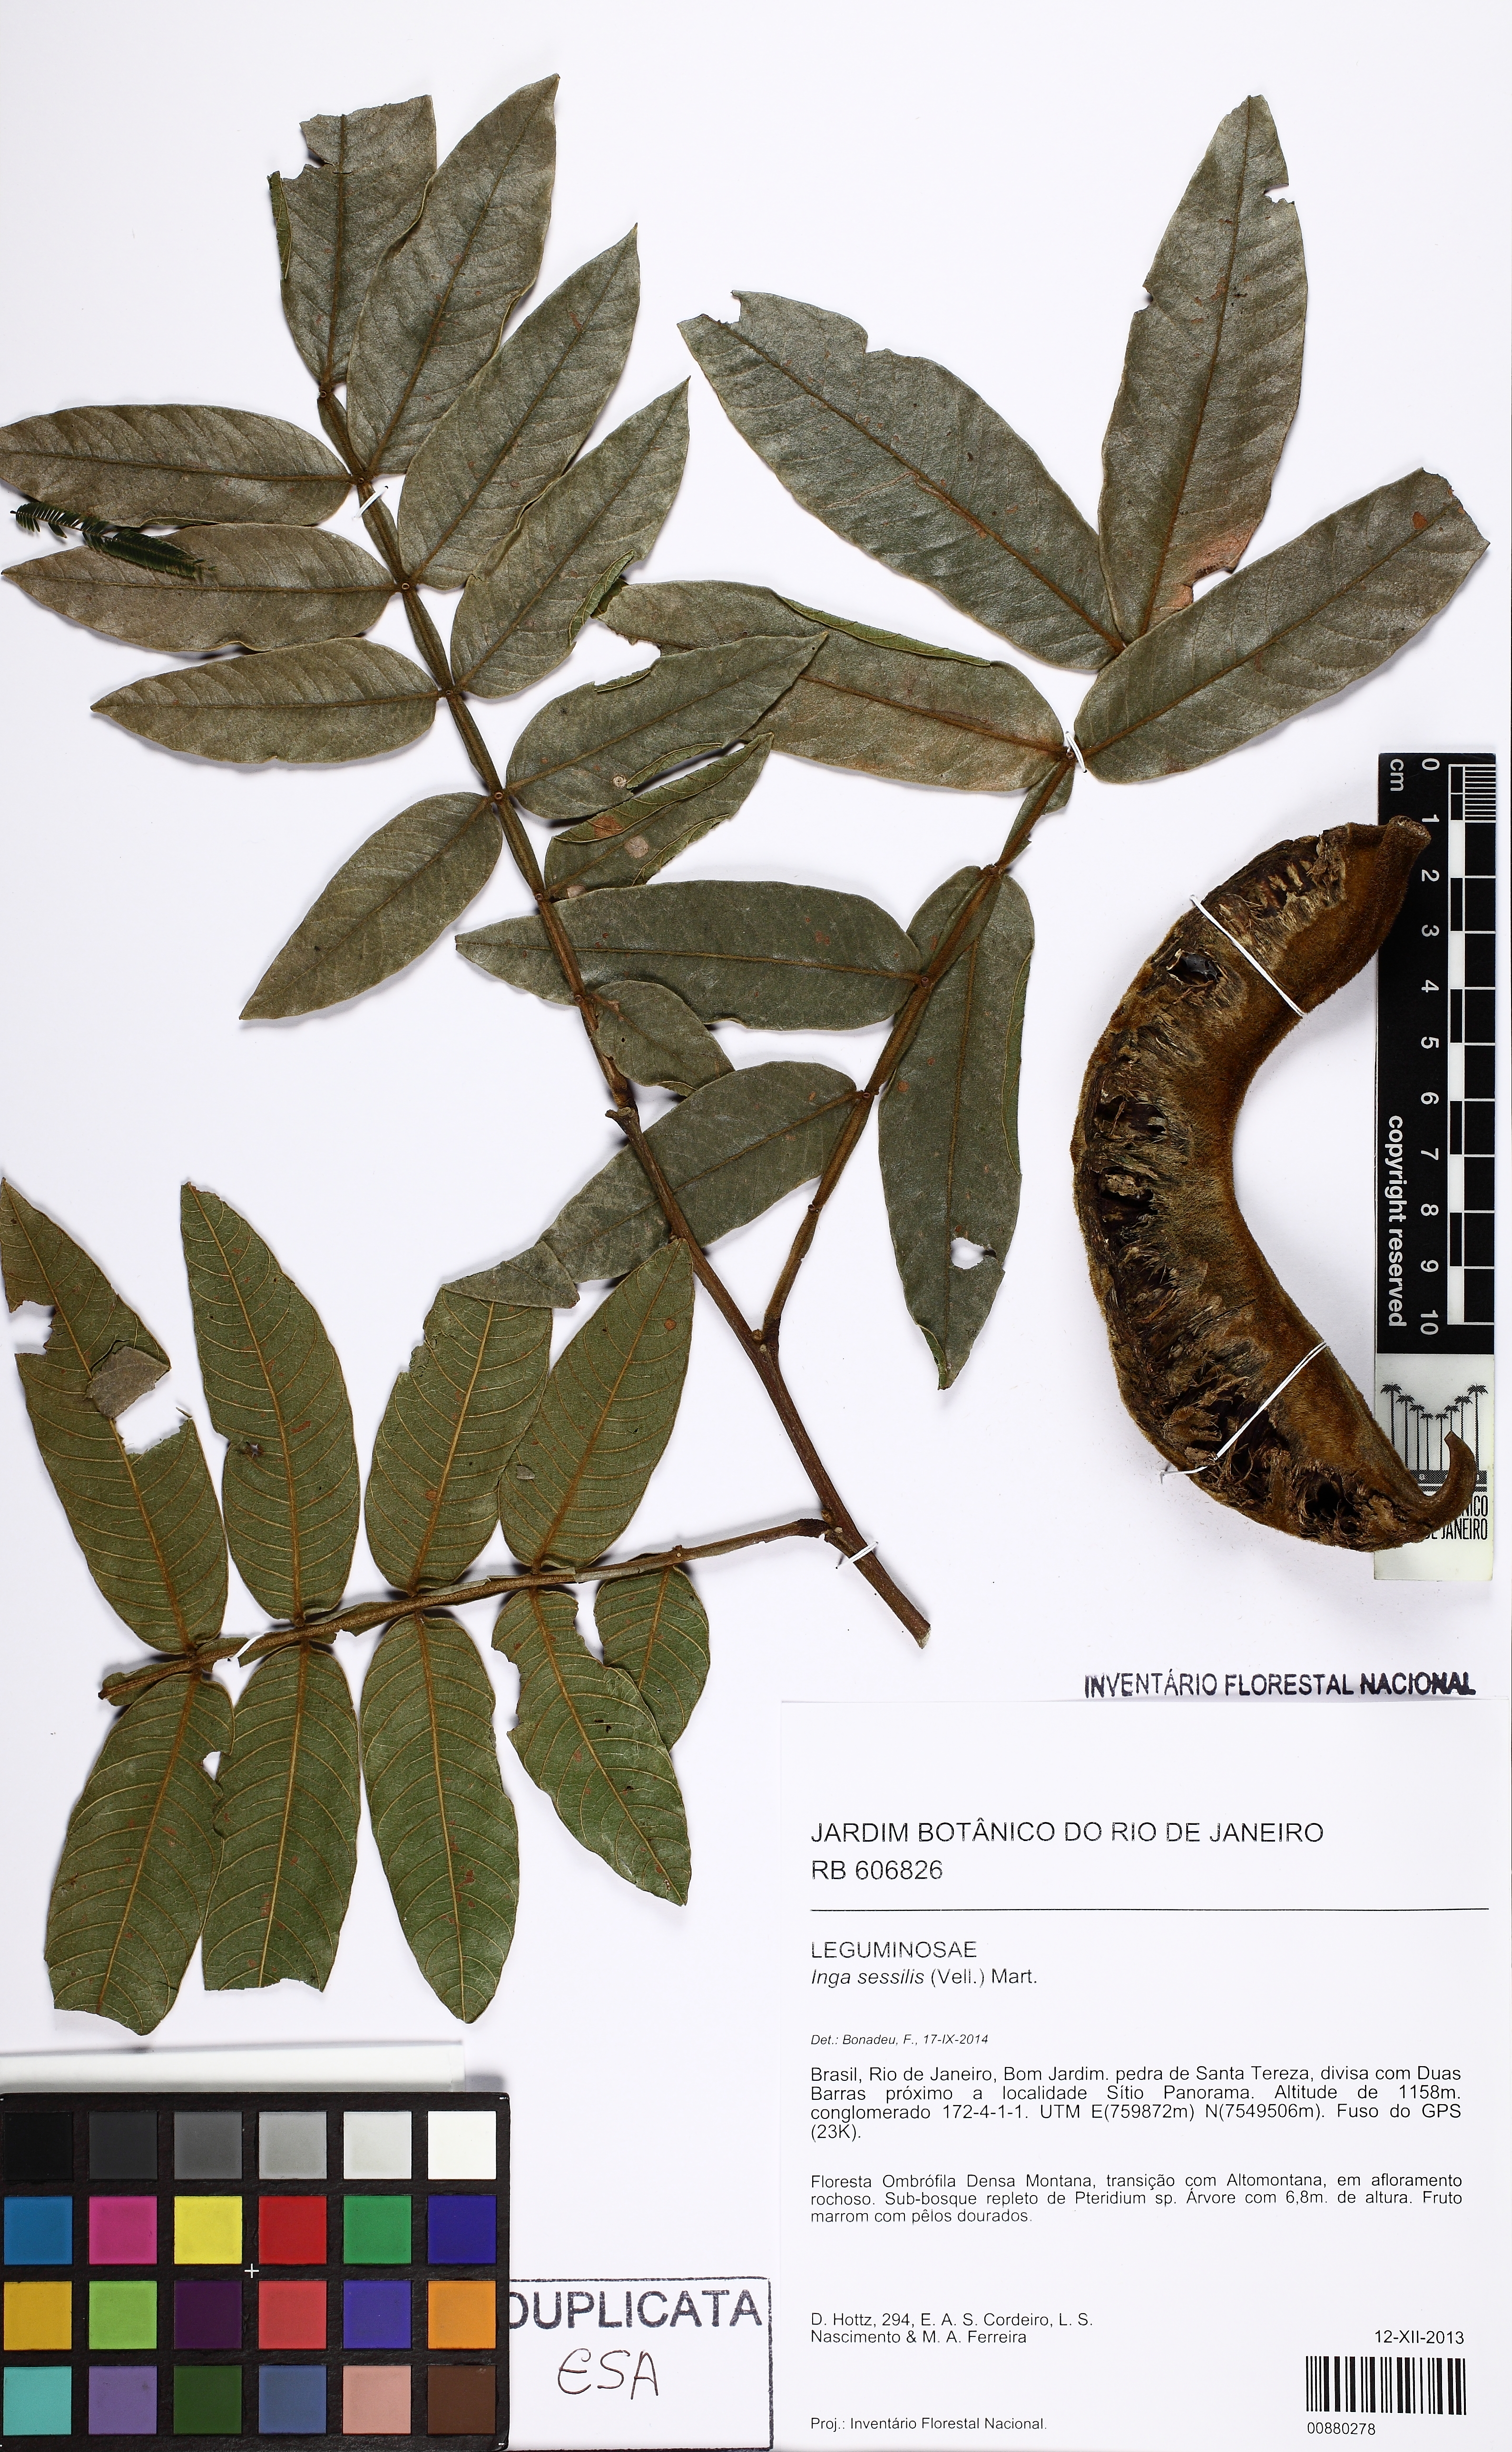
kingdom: Plantae
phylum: Tracheophyta
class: Magnoliopsida
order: Fabales
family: Fabaceae
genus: Inga
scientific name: Inga sessilis
